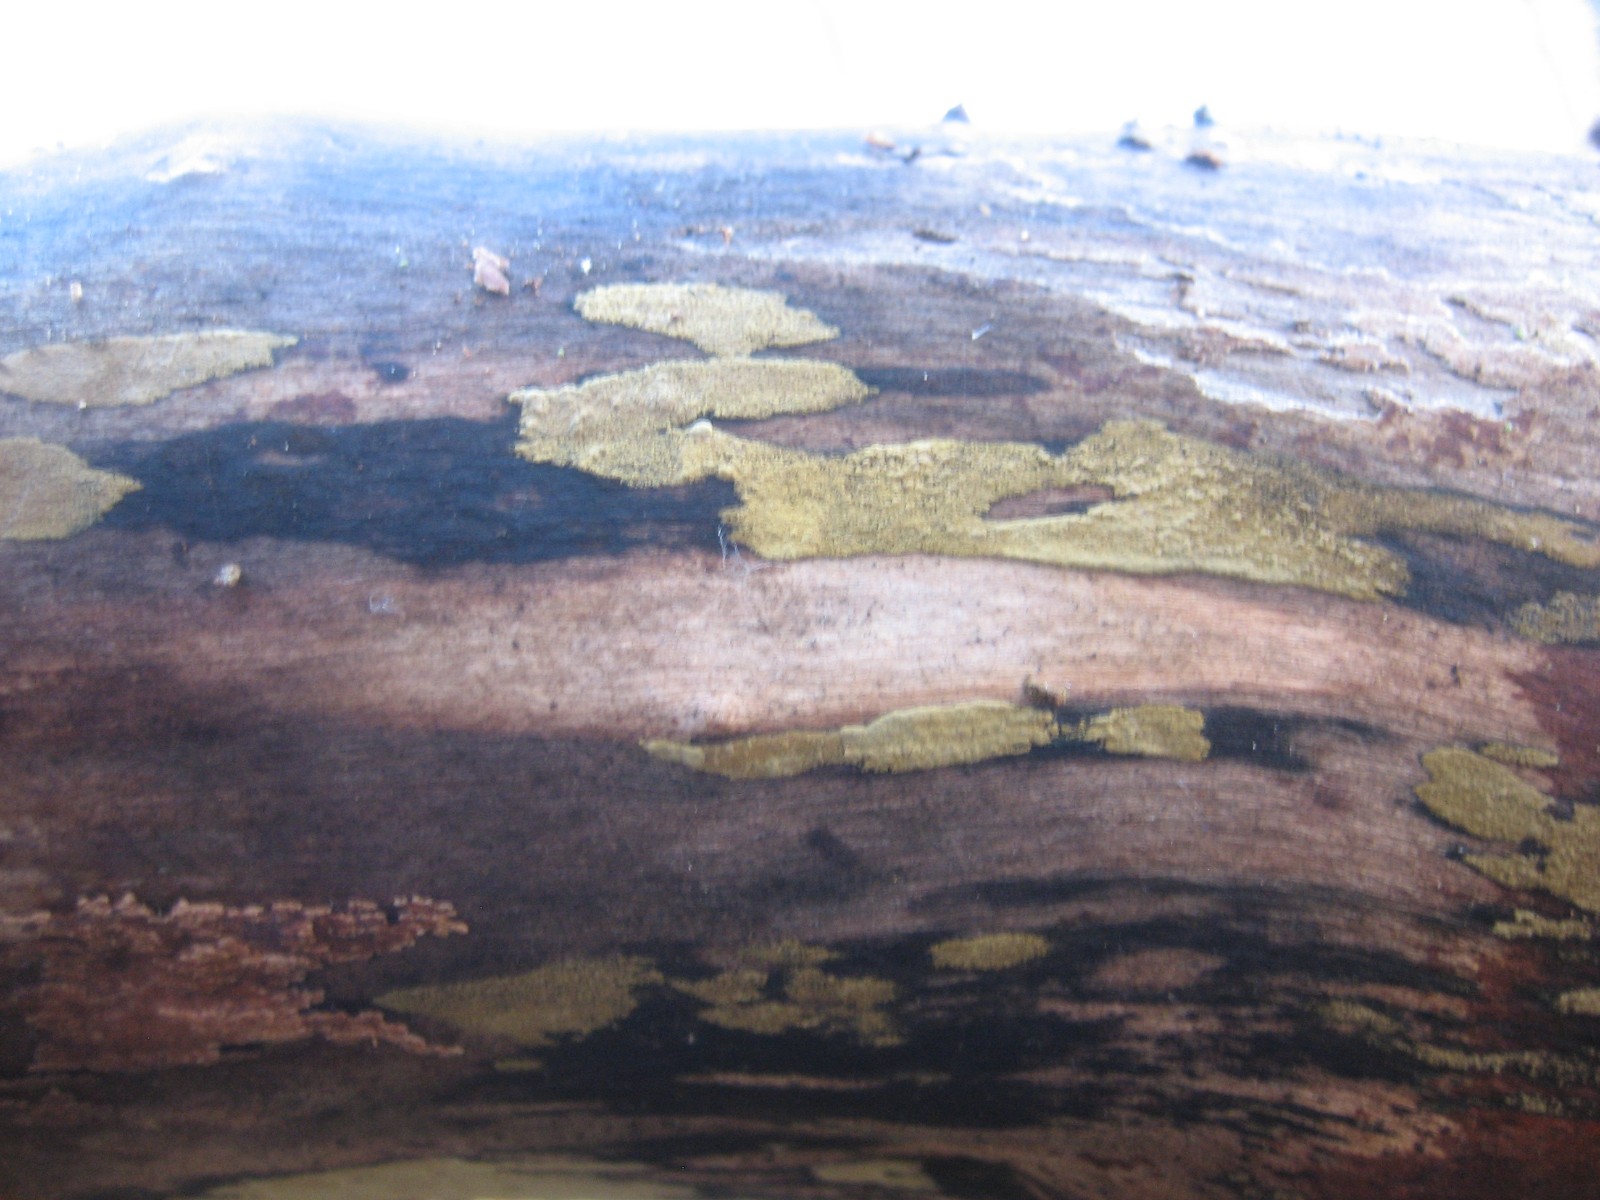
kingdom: Fungi
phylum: Basidiomycota
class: Agaricomycetes
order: Corticiales
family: Corticiaceae
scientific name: Corticiaceae
